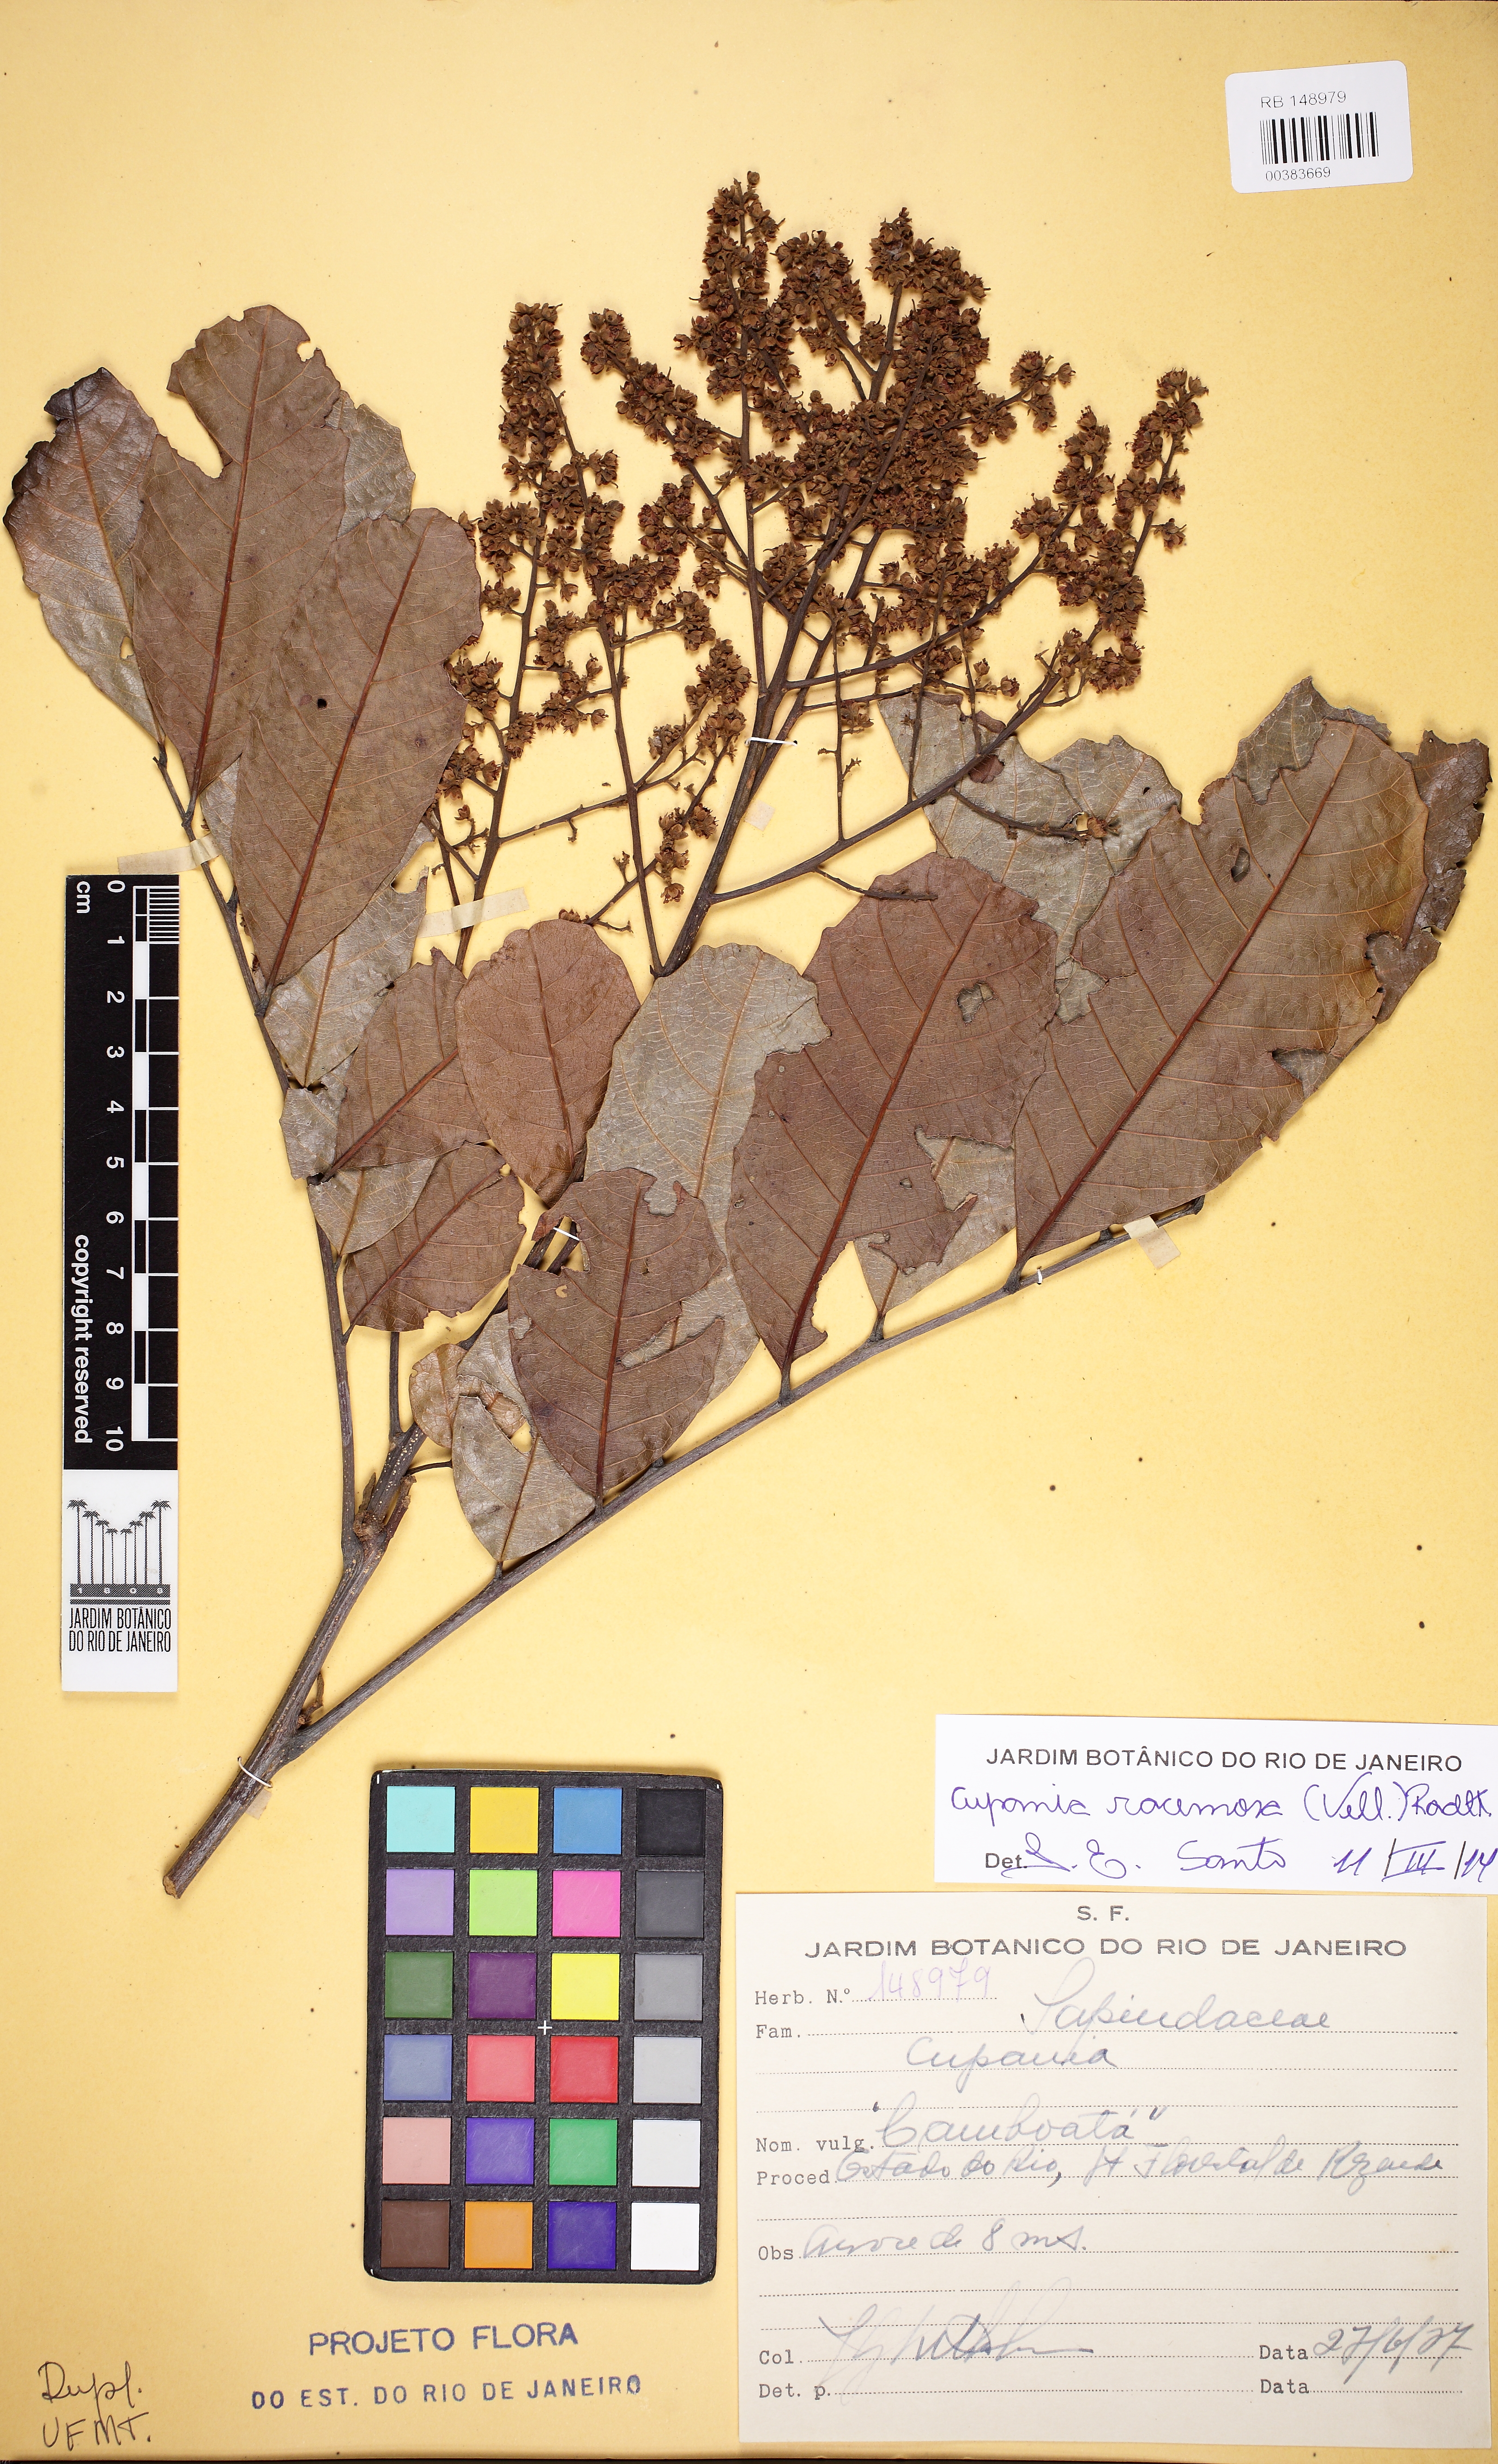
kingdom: Plantae
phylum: Tracheophyta
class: Magnoliopsida
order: Sapindales
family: Sapindaceae
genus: Cupania
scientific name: Cupania racemosa
